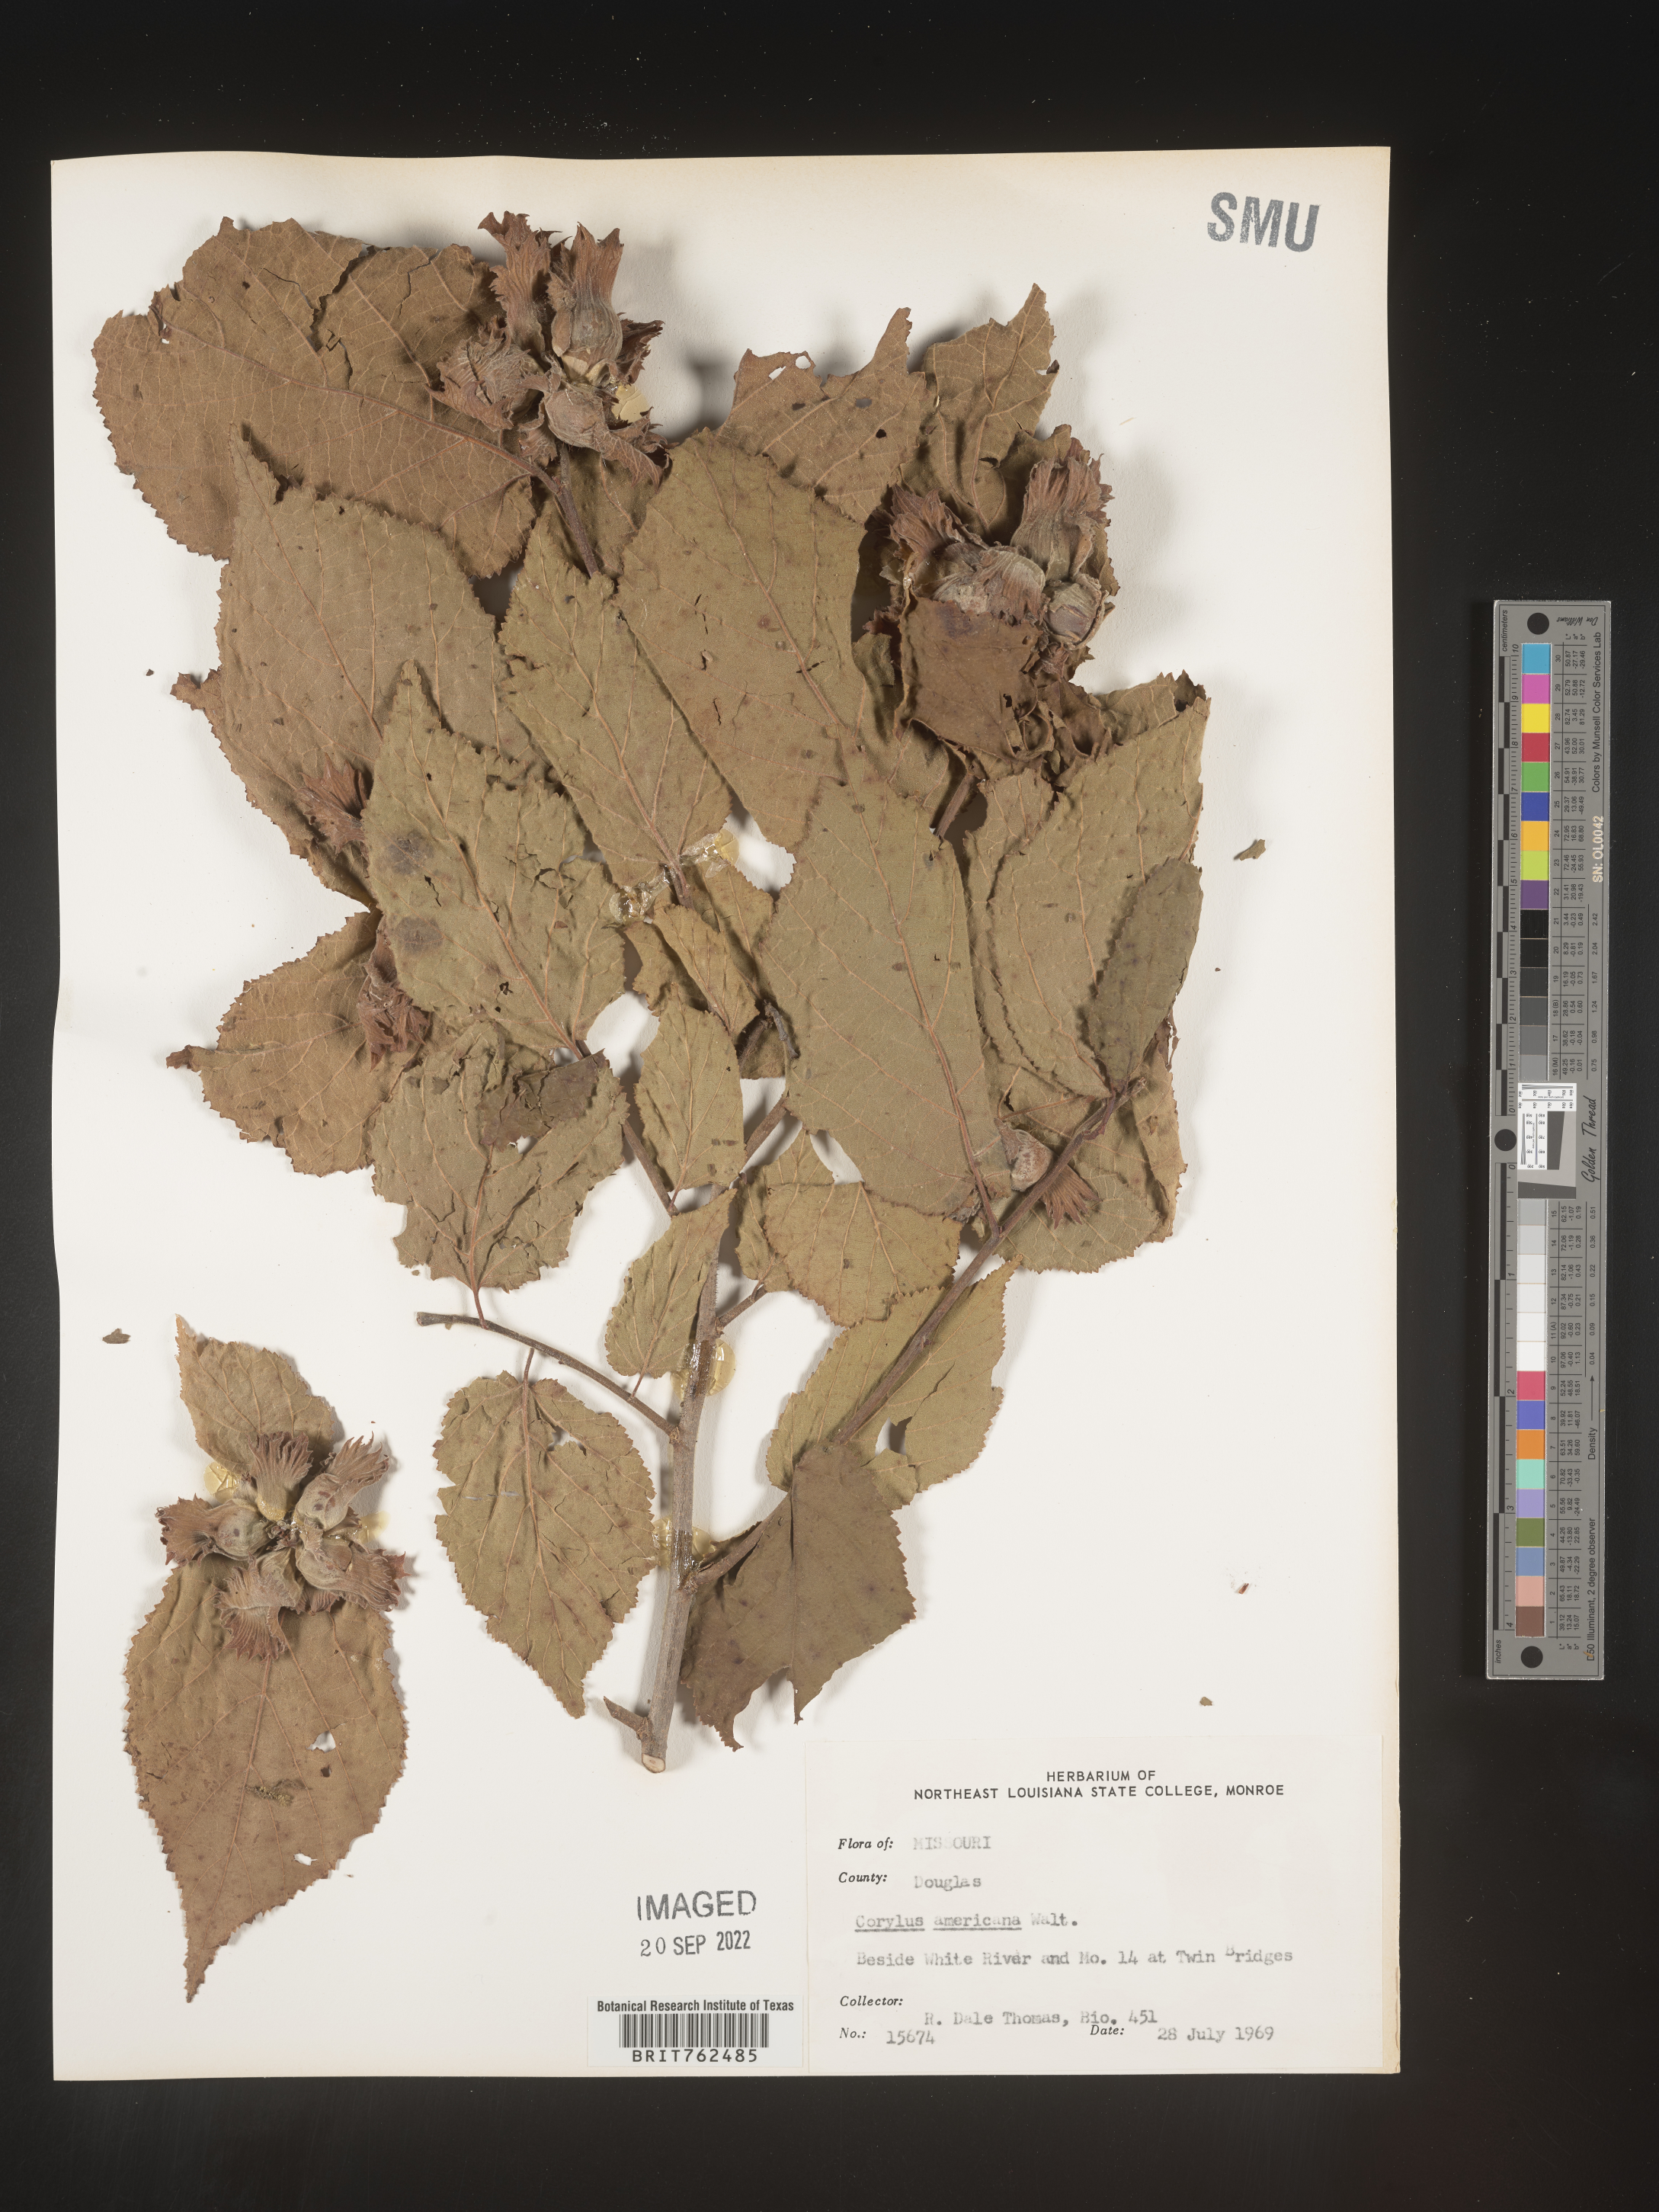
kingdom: Plantae
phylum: Tracheophyta
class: Magnoliopsida
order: Fagales
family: Betulaceae
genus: Corylus
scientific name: Corylus americana
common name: American hazel
